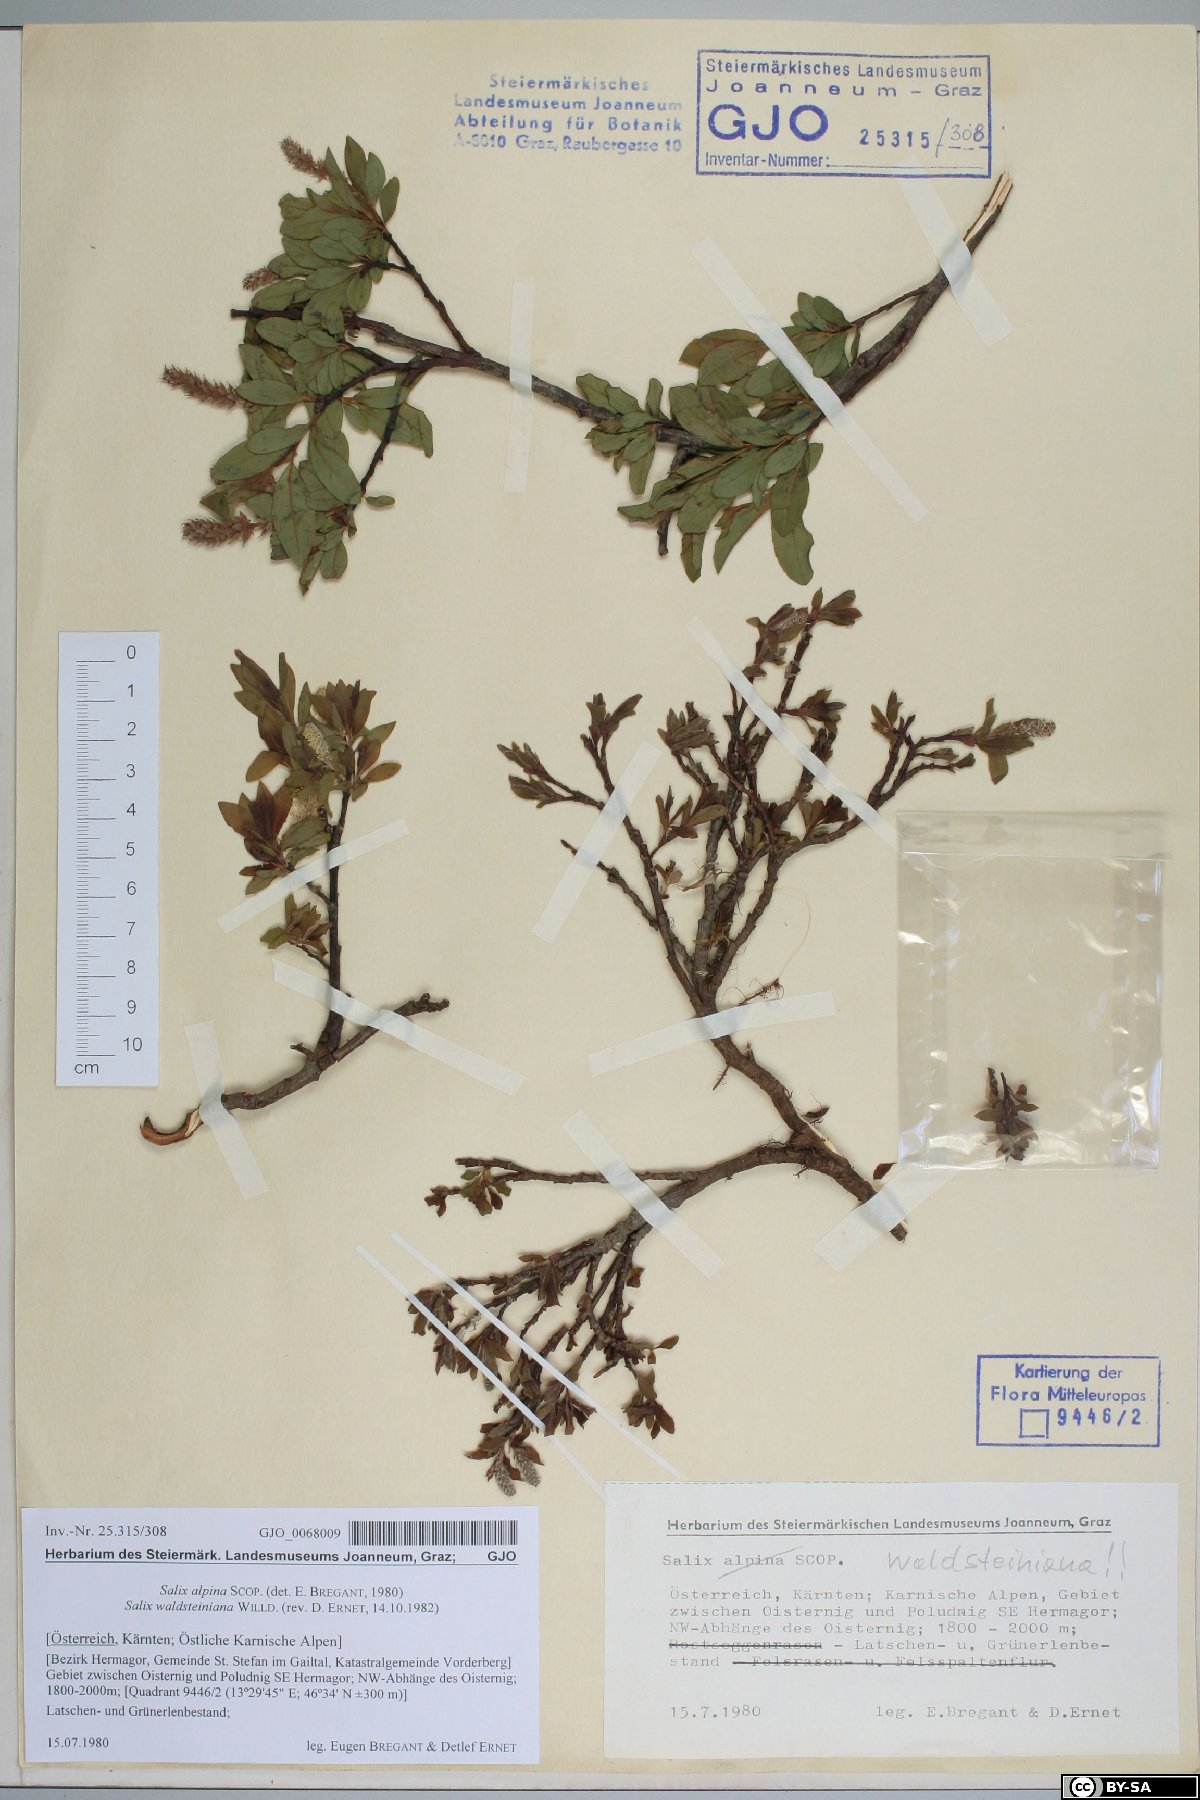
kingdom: Plantae
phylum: Tracheophyta
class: Magnoliopsida
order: Malpighiales
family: Salicaceae
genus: Salix
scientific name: Salix waldsteiniana
